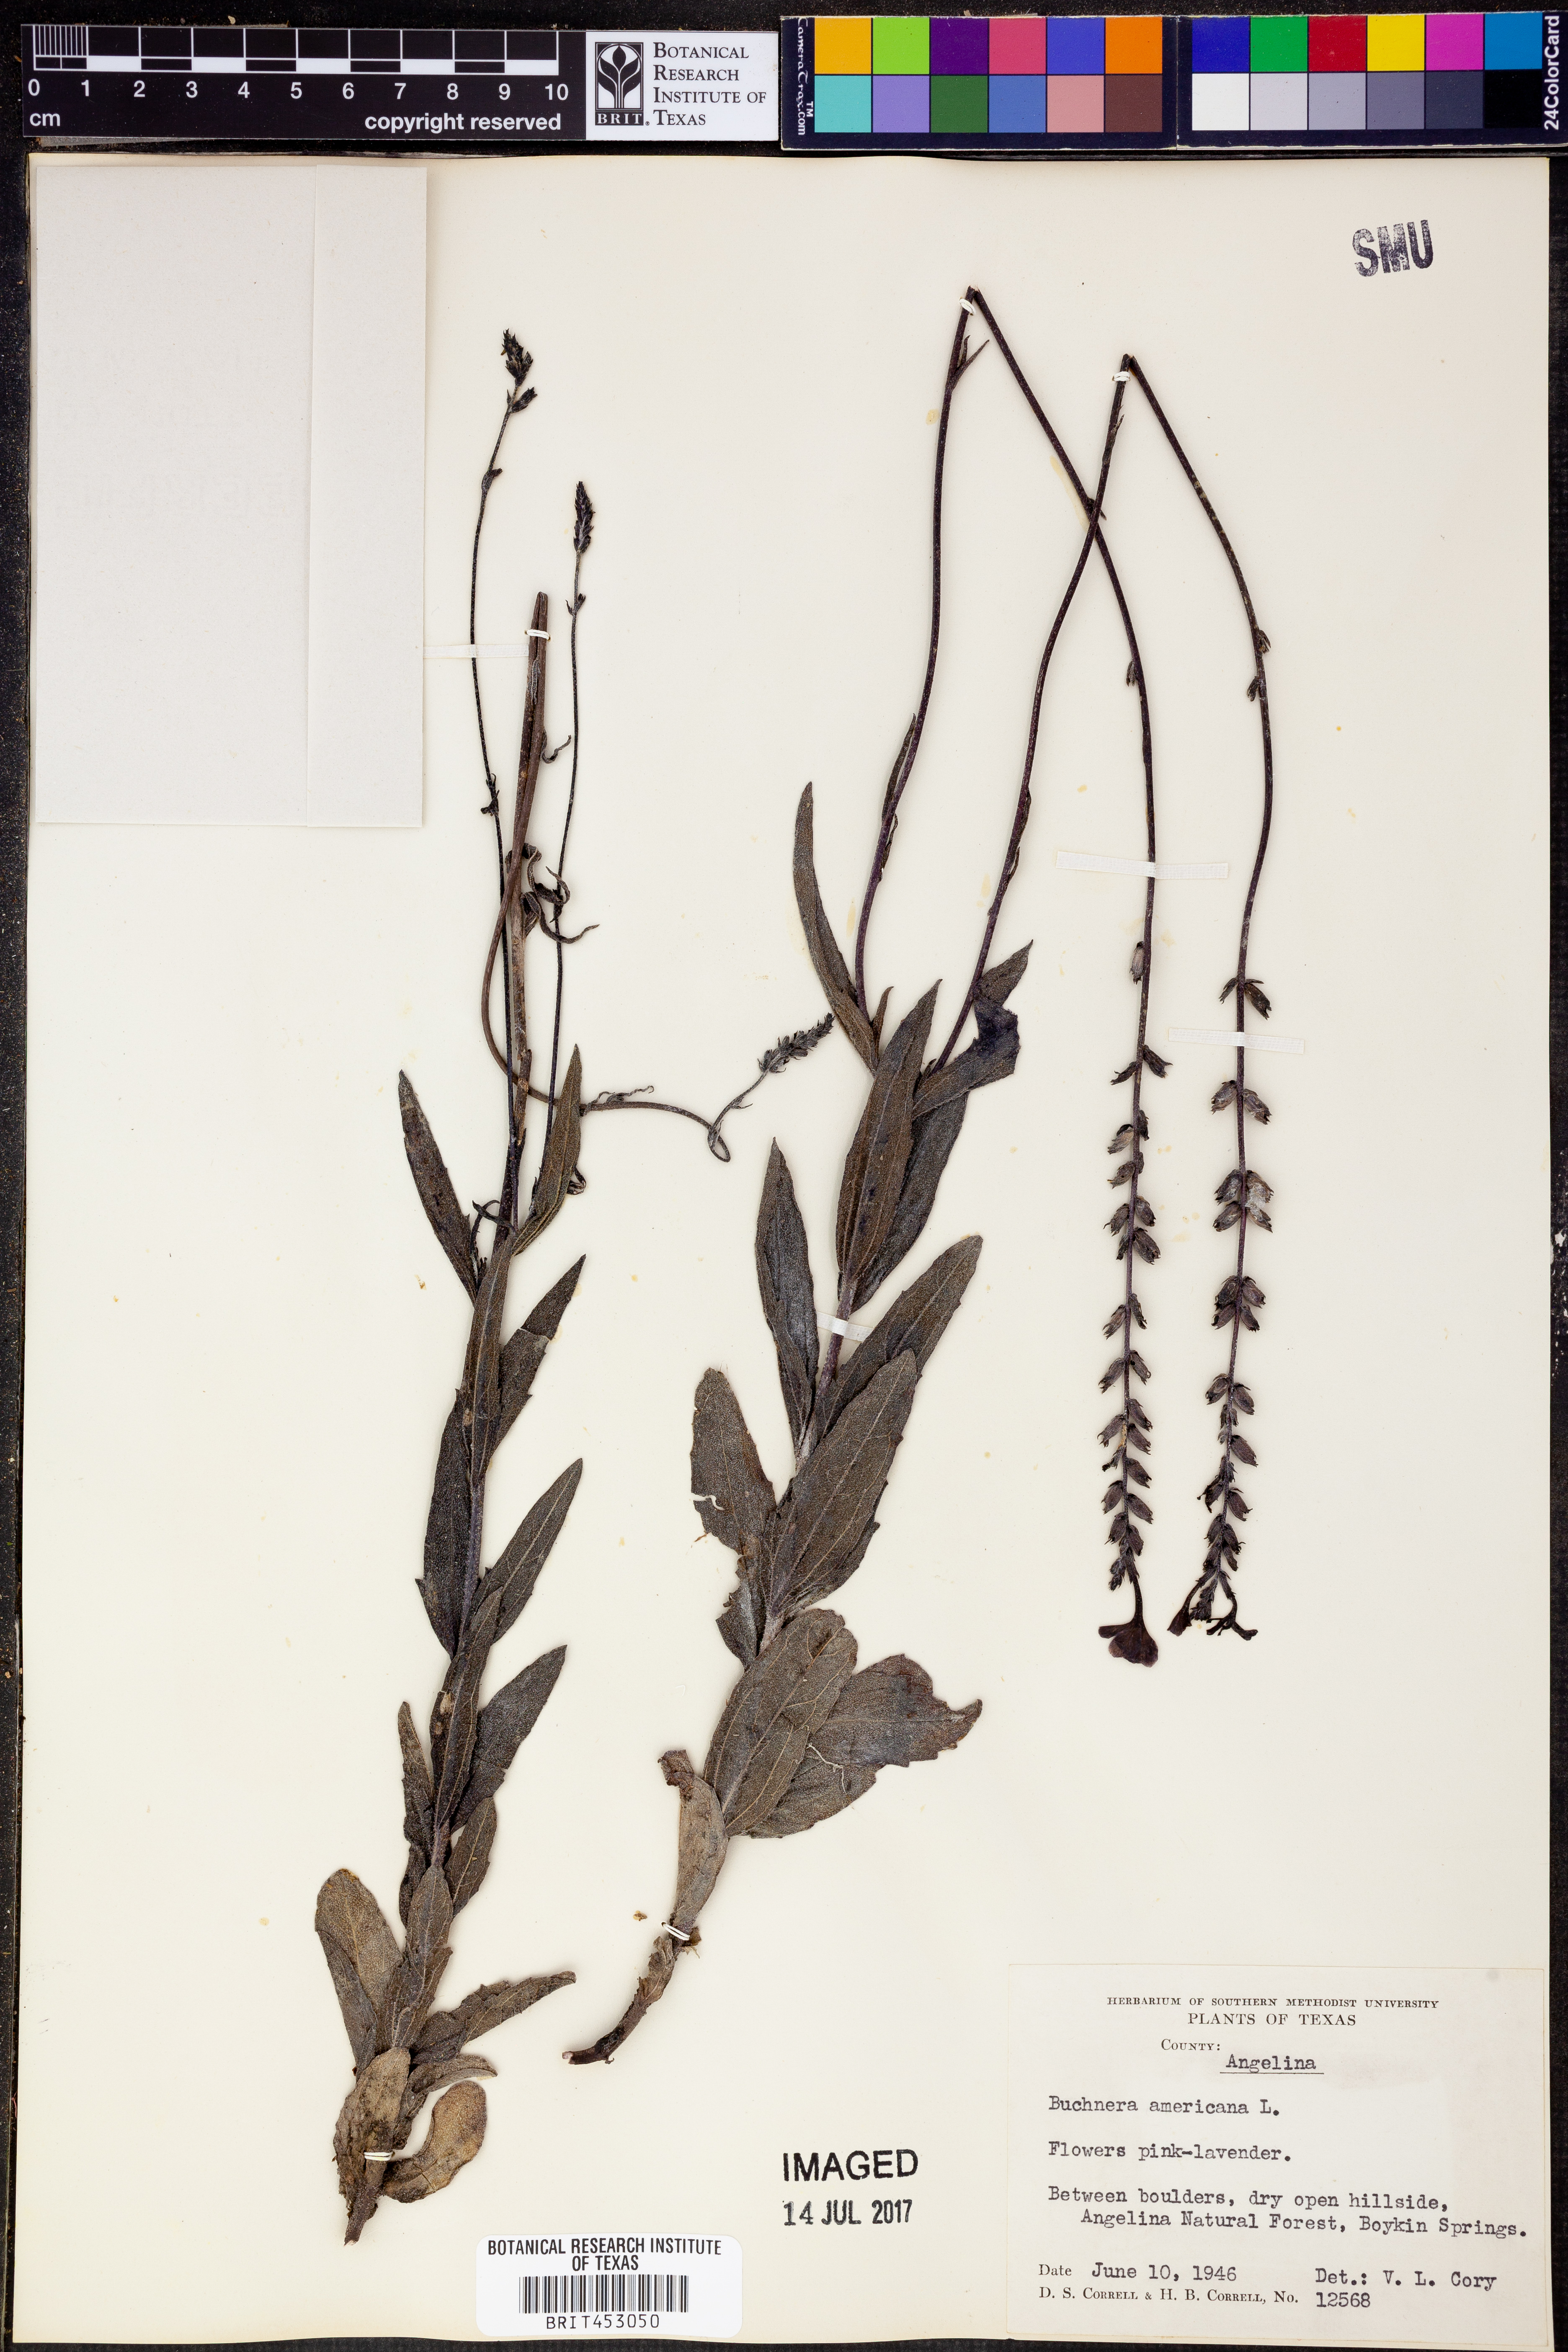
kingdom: Plantae
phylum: Tracheophyta
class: Magnoliopsida
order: Lamiales
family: Orobanchaceae
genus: Buchnera
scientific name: Buchnera americana
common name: American bluehearts
